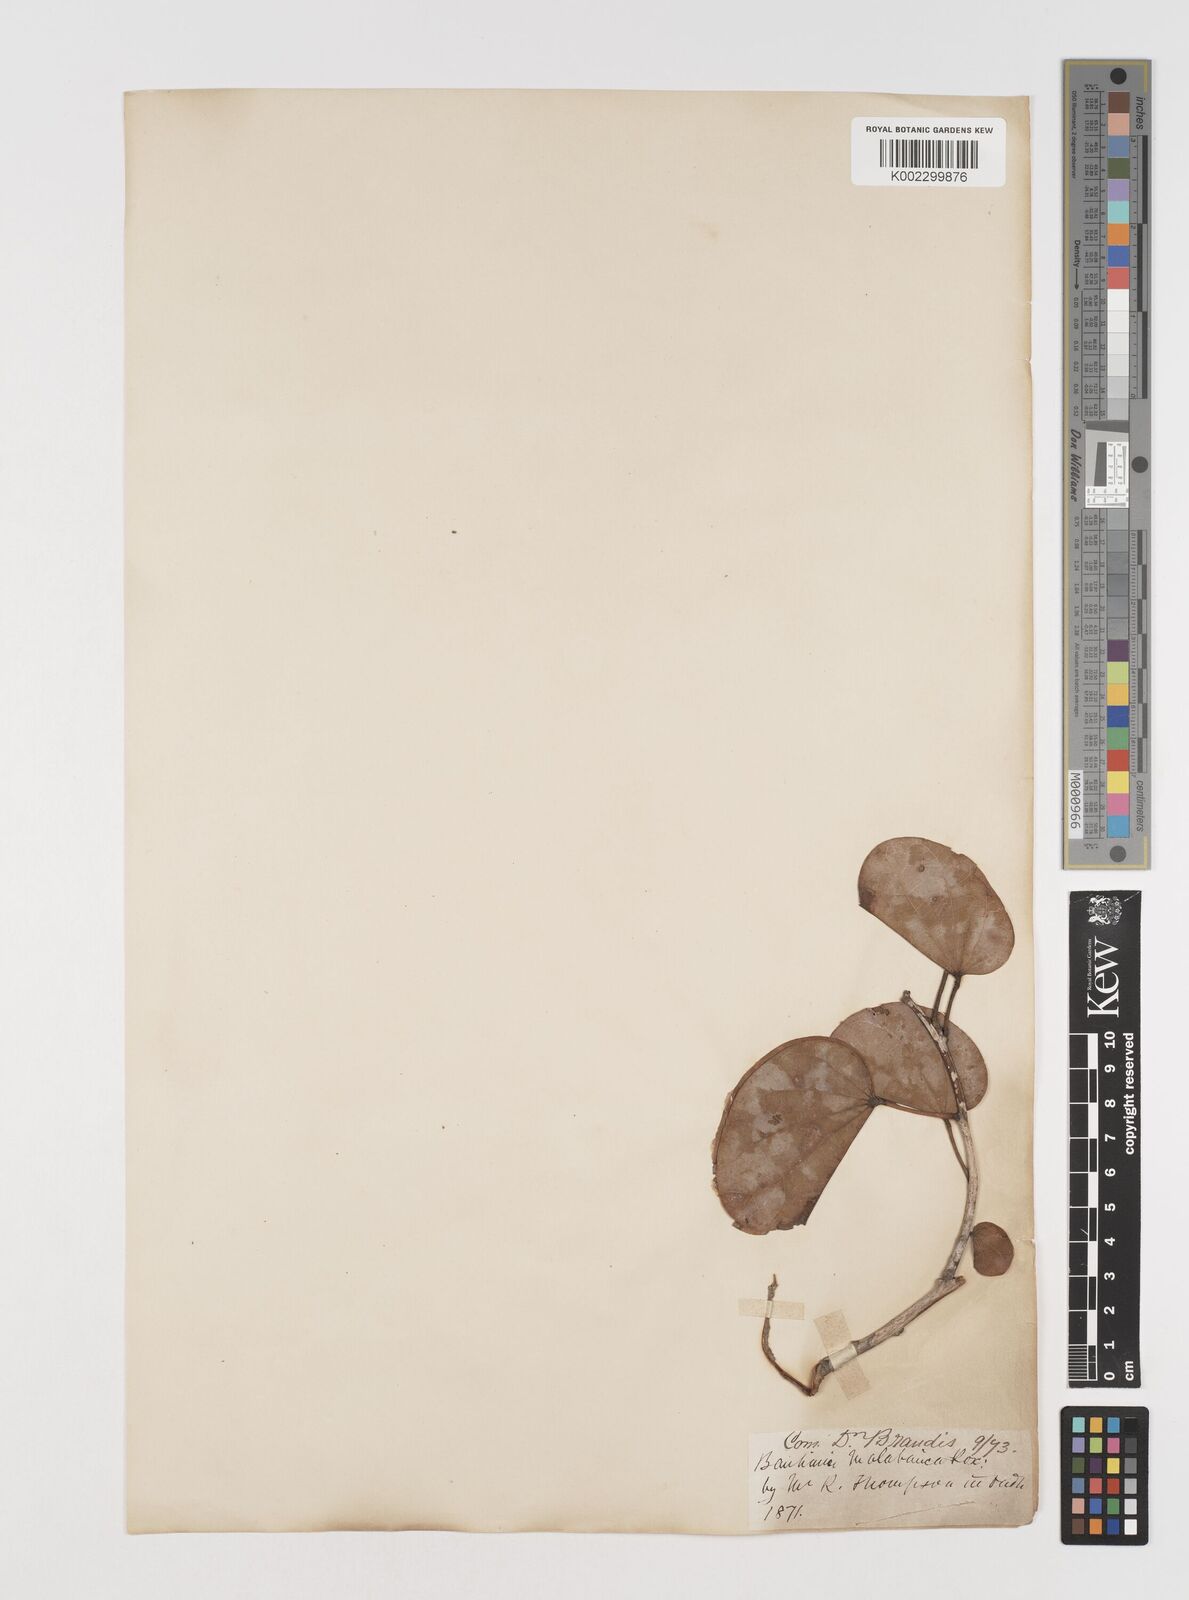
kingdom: Plantae
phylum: Tracheophyta
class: Magnoliopsida
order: Fabales
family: Fabaceae
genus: Piliostigma
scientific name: Piliostigma malabaricum
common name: Malabar bauhinia
